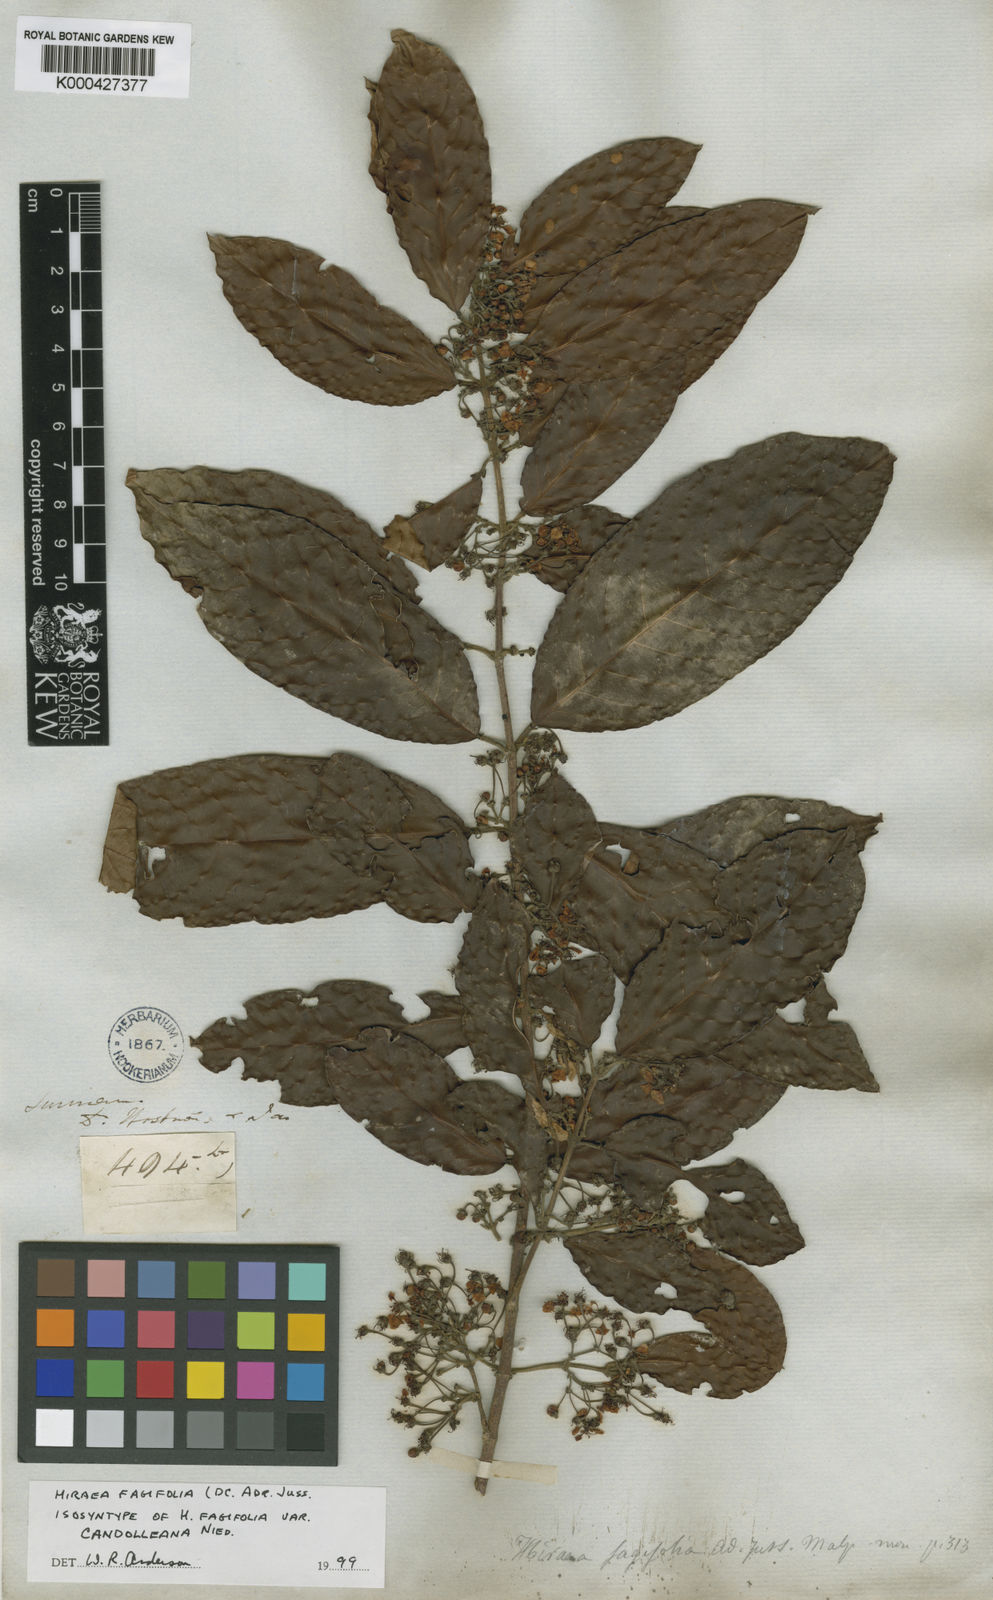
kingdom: Plantae
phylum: Tracheophyta
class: Magnoliopsida
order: Malpighiales
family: Malpighiaceae
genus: Hiraea
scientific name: Hiraea fagifolia
